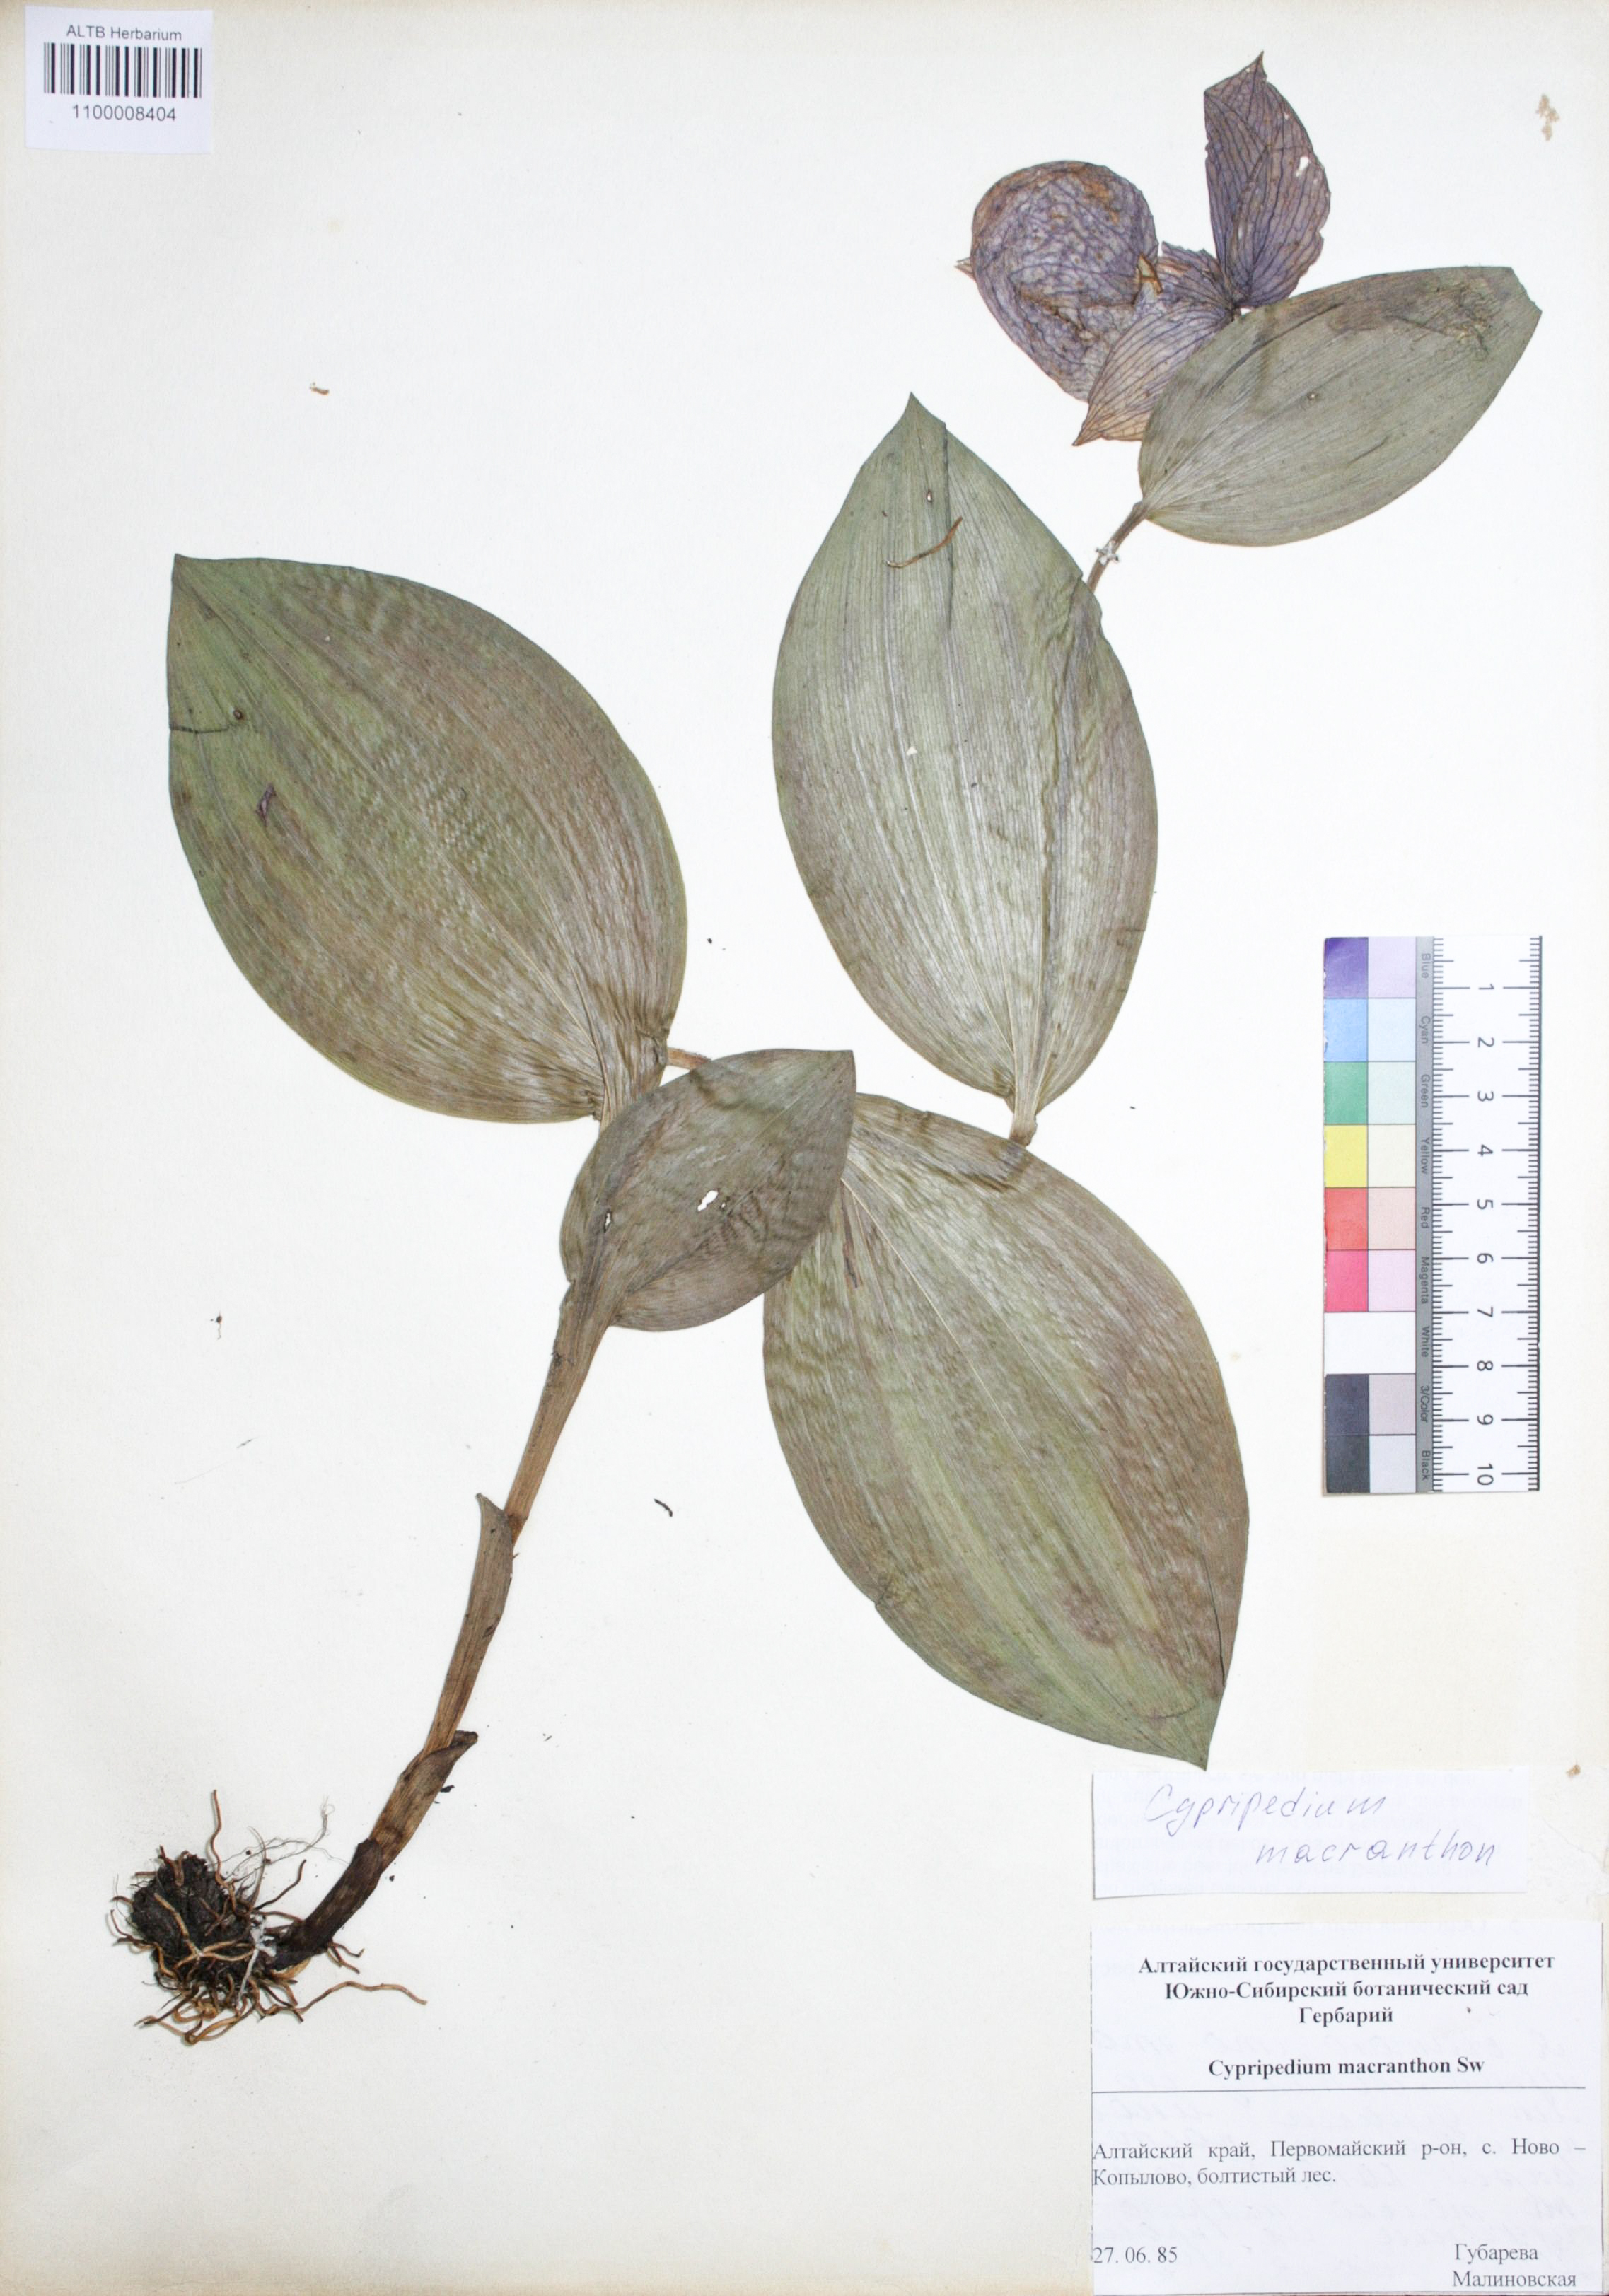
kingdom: Plantae
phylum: Tracheophyta
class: Liliopsida
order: Asparagales
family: Orchidaceae
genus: Cypripedium
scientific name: Cypripedium macranthon
